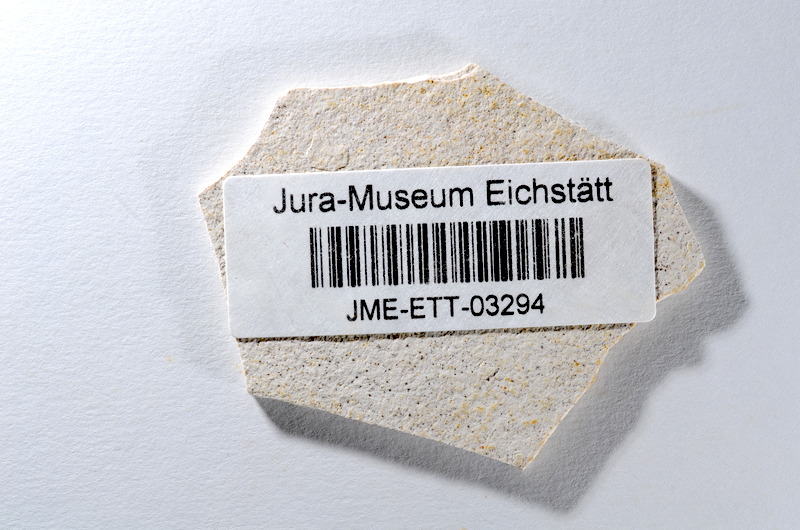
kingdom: Animalia
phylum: Chordata
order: Salmoniformes
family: Orthogonikleithridae
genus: Orthogonikleithrus
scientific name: Orthogonikleithrus hoelli
